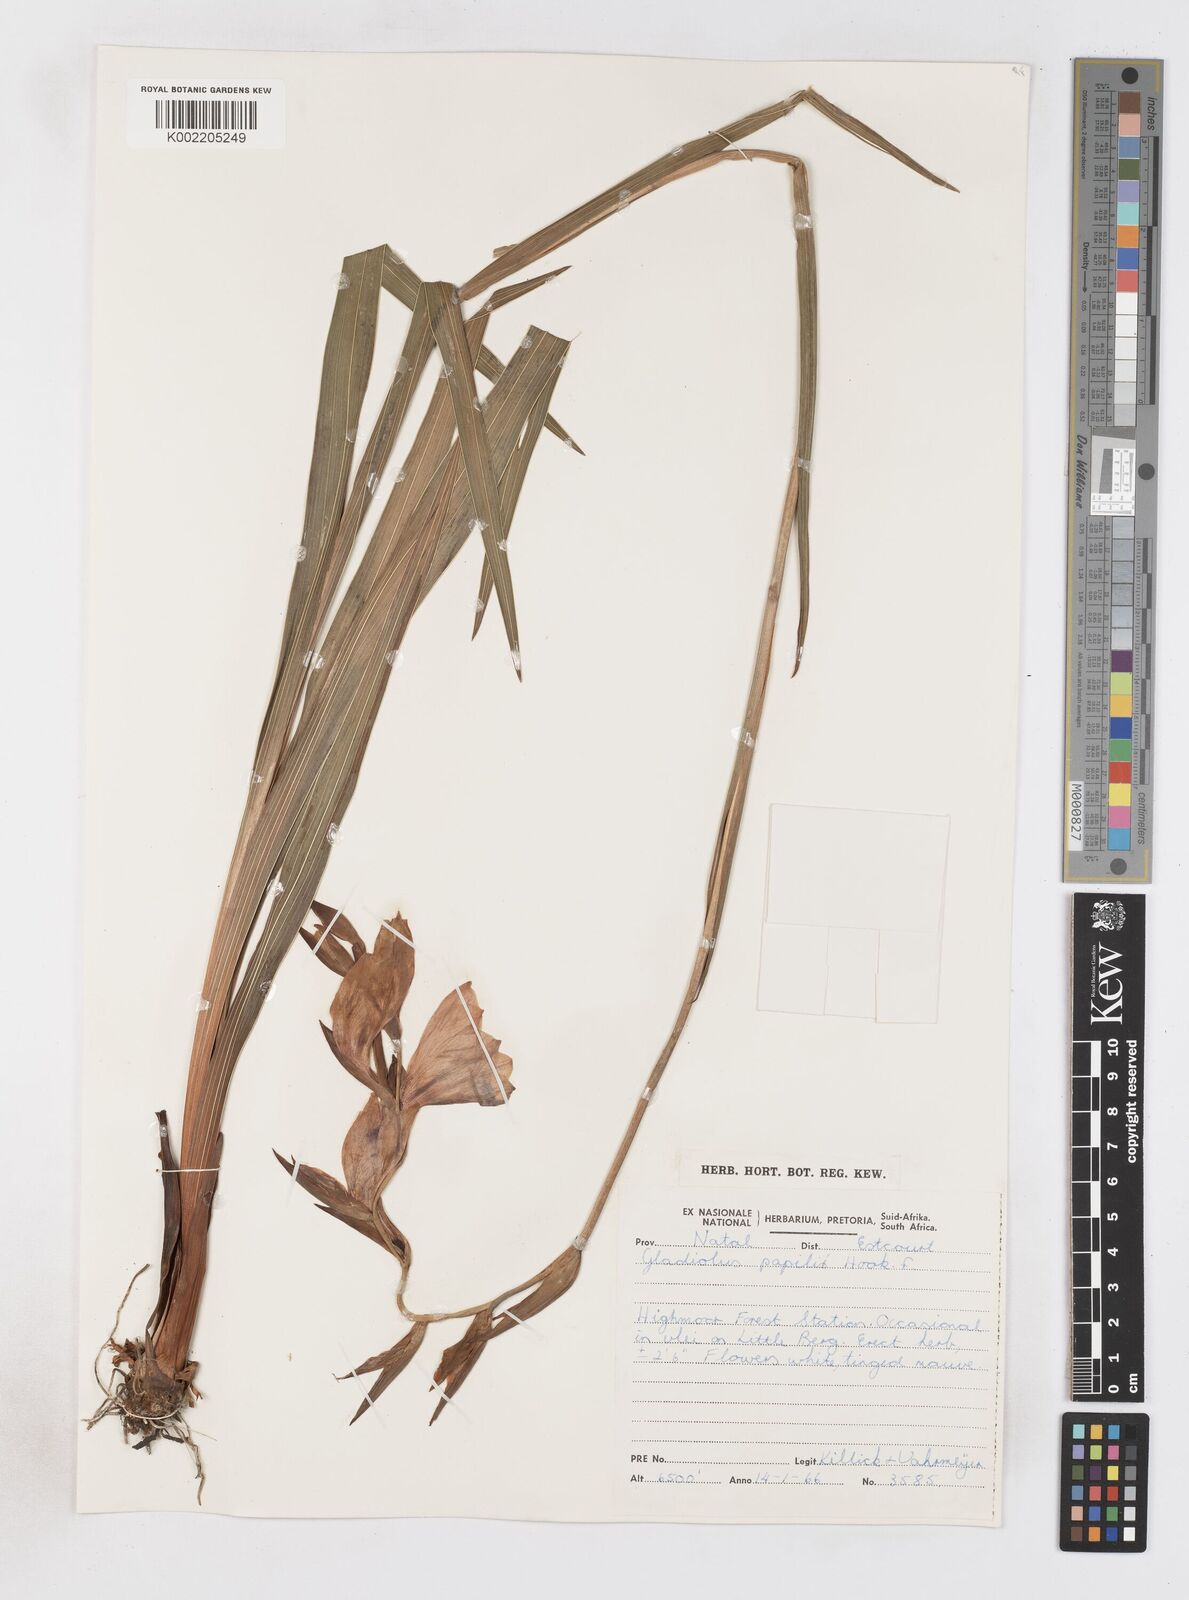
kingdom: Plantae
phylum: Tracheophyta
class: Liliopsida
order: Asparagales
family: Iridaceae
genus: Gladiolus
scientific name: Gladiolus papilio
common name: Goldblotch gladiolus
